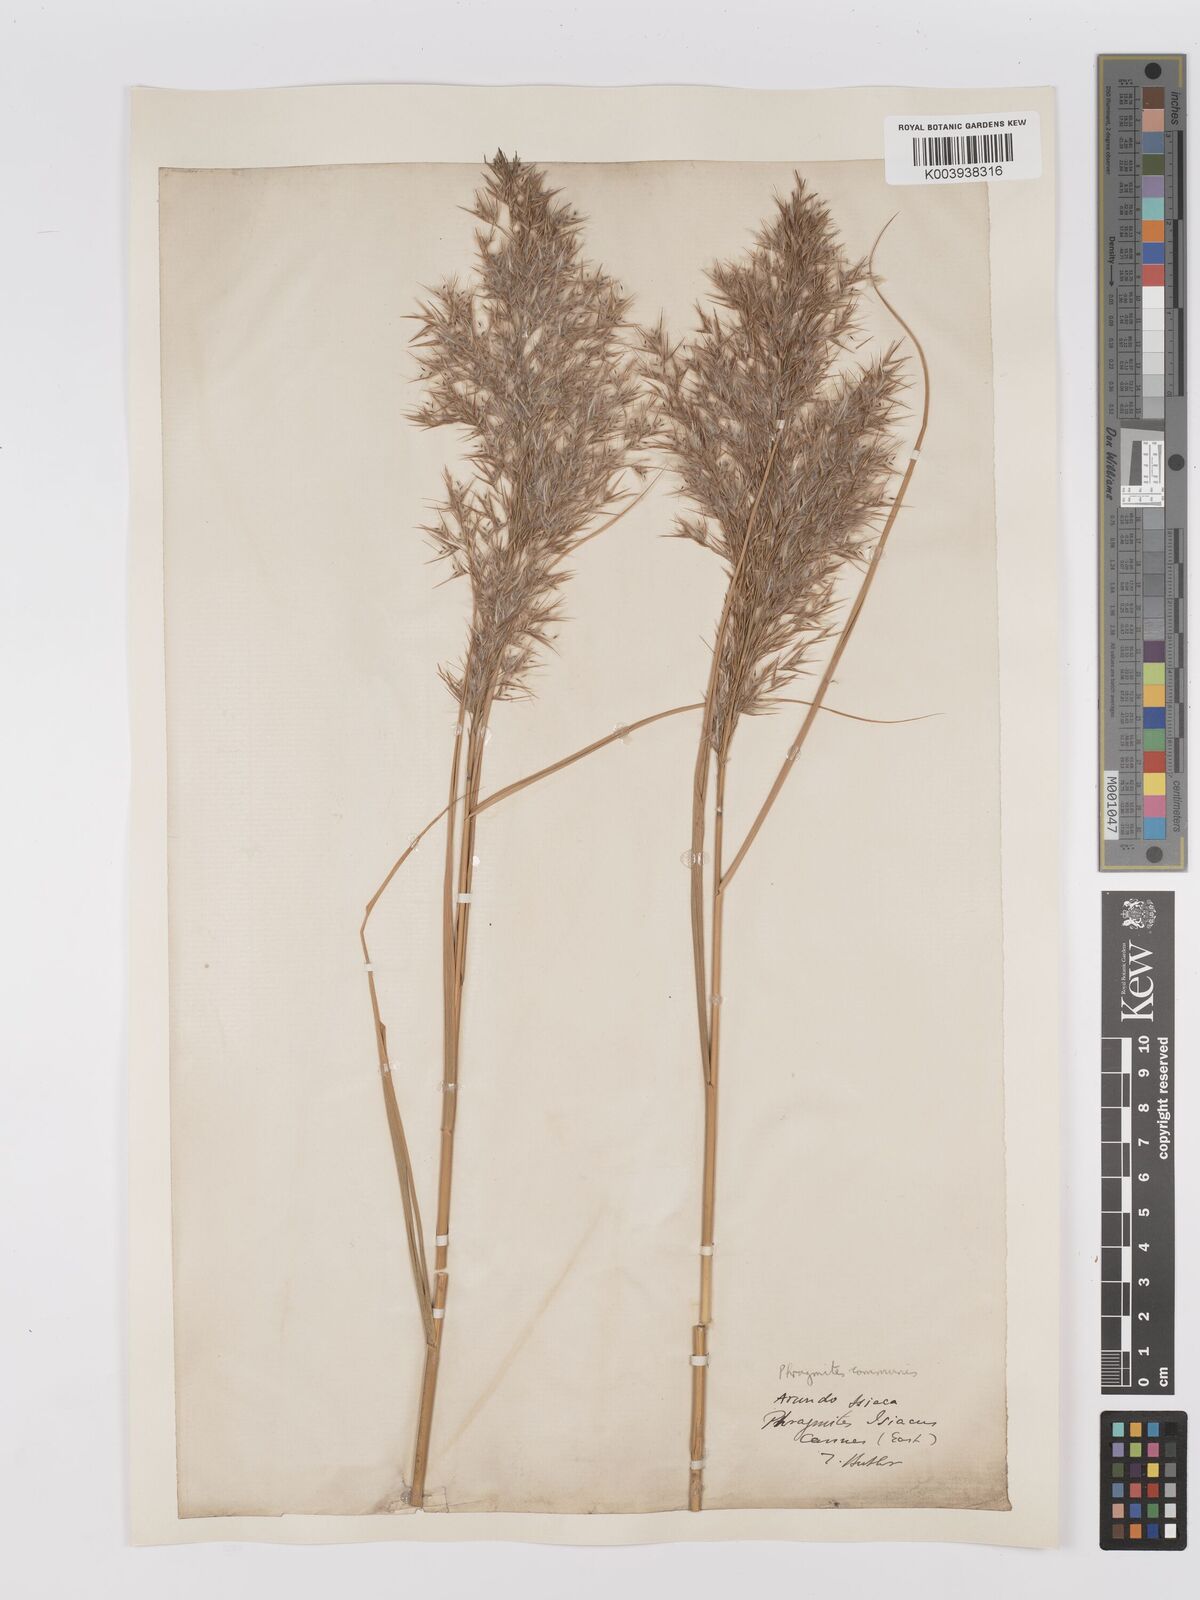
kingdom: Plantae
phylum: Tracheophyta
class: Liliopsida
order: Poales
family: Poaceae
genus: Phragmites
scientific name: Phragmites australis
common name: Common reed
